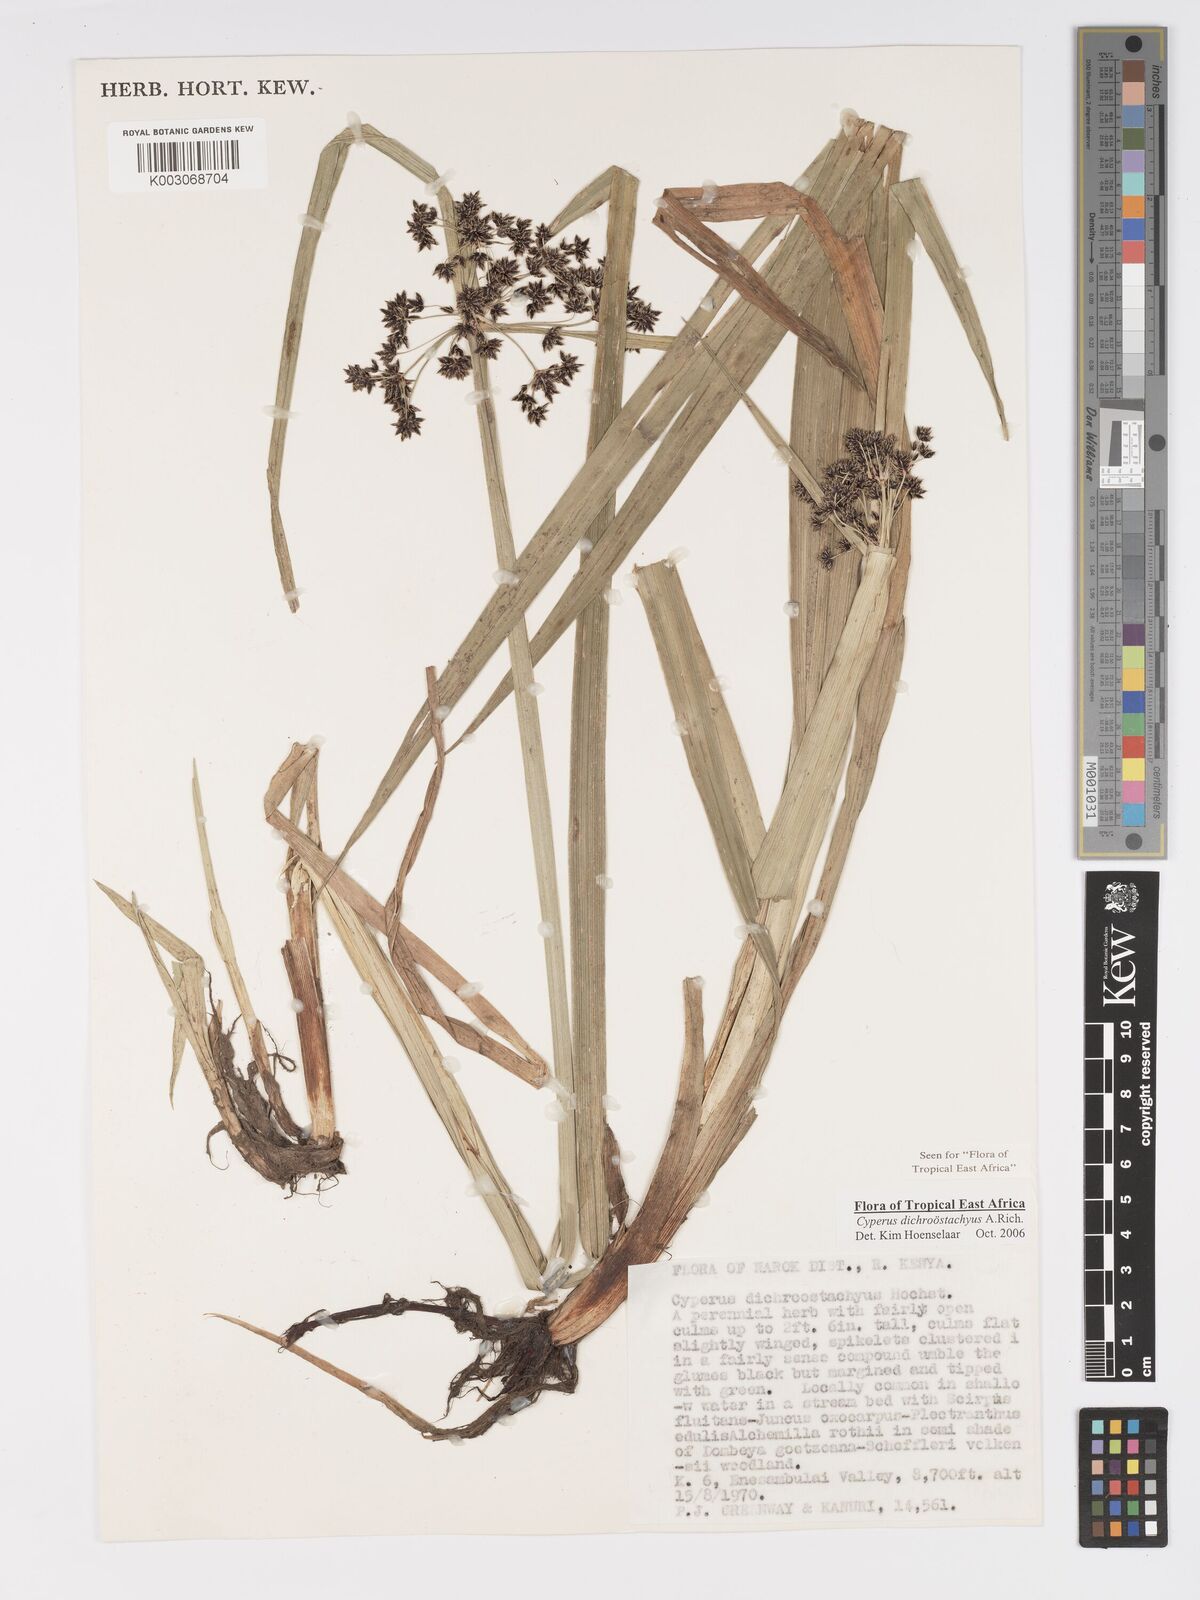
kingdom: Plantae
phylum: Tracheophyta
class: Liliopsida
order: Poales
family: Cyperaceae
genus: Cyperus
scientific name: Cyperus dichrostachyus
